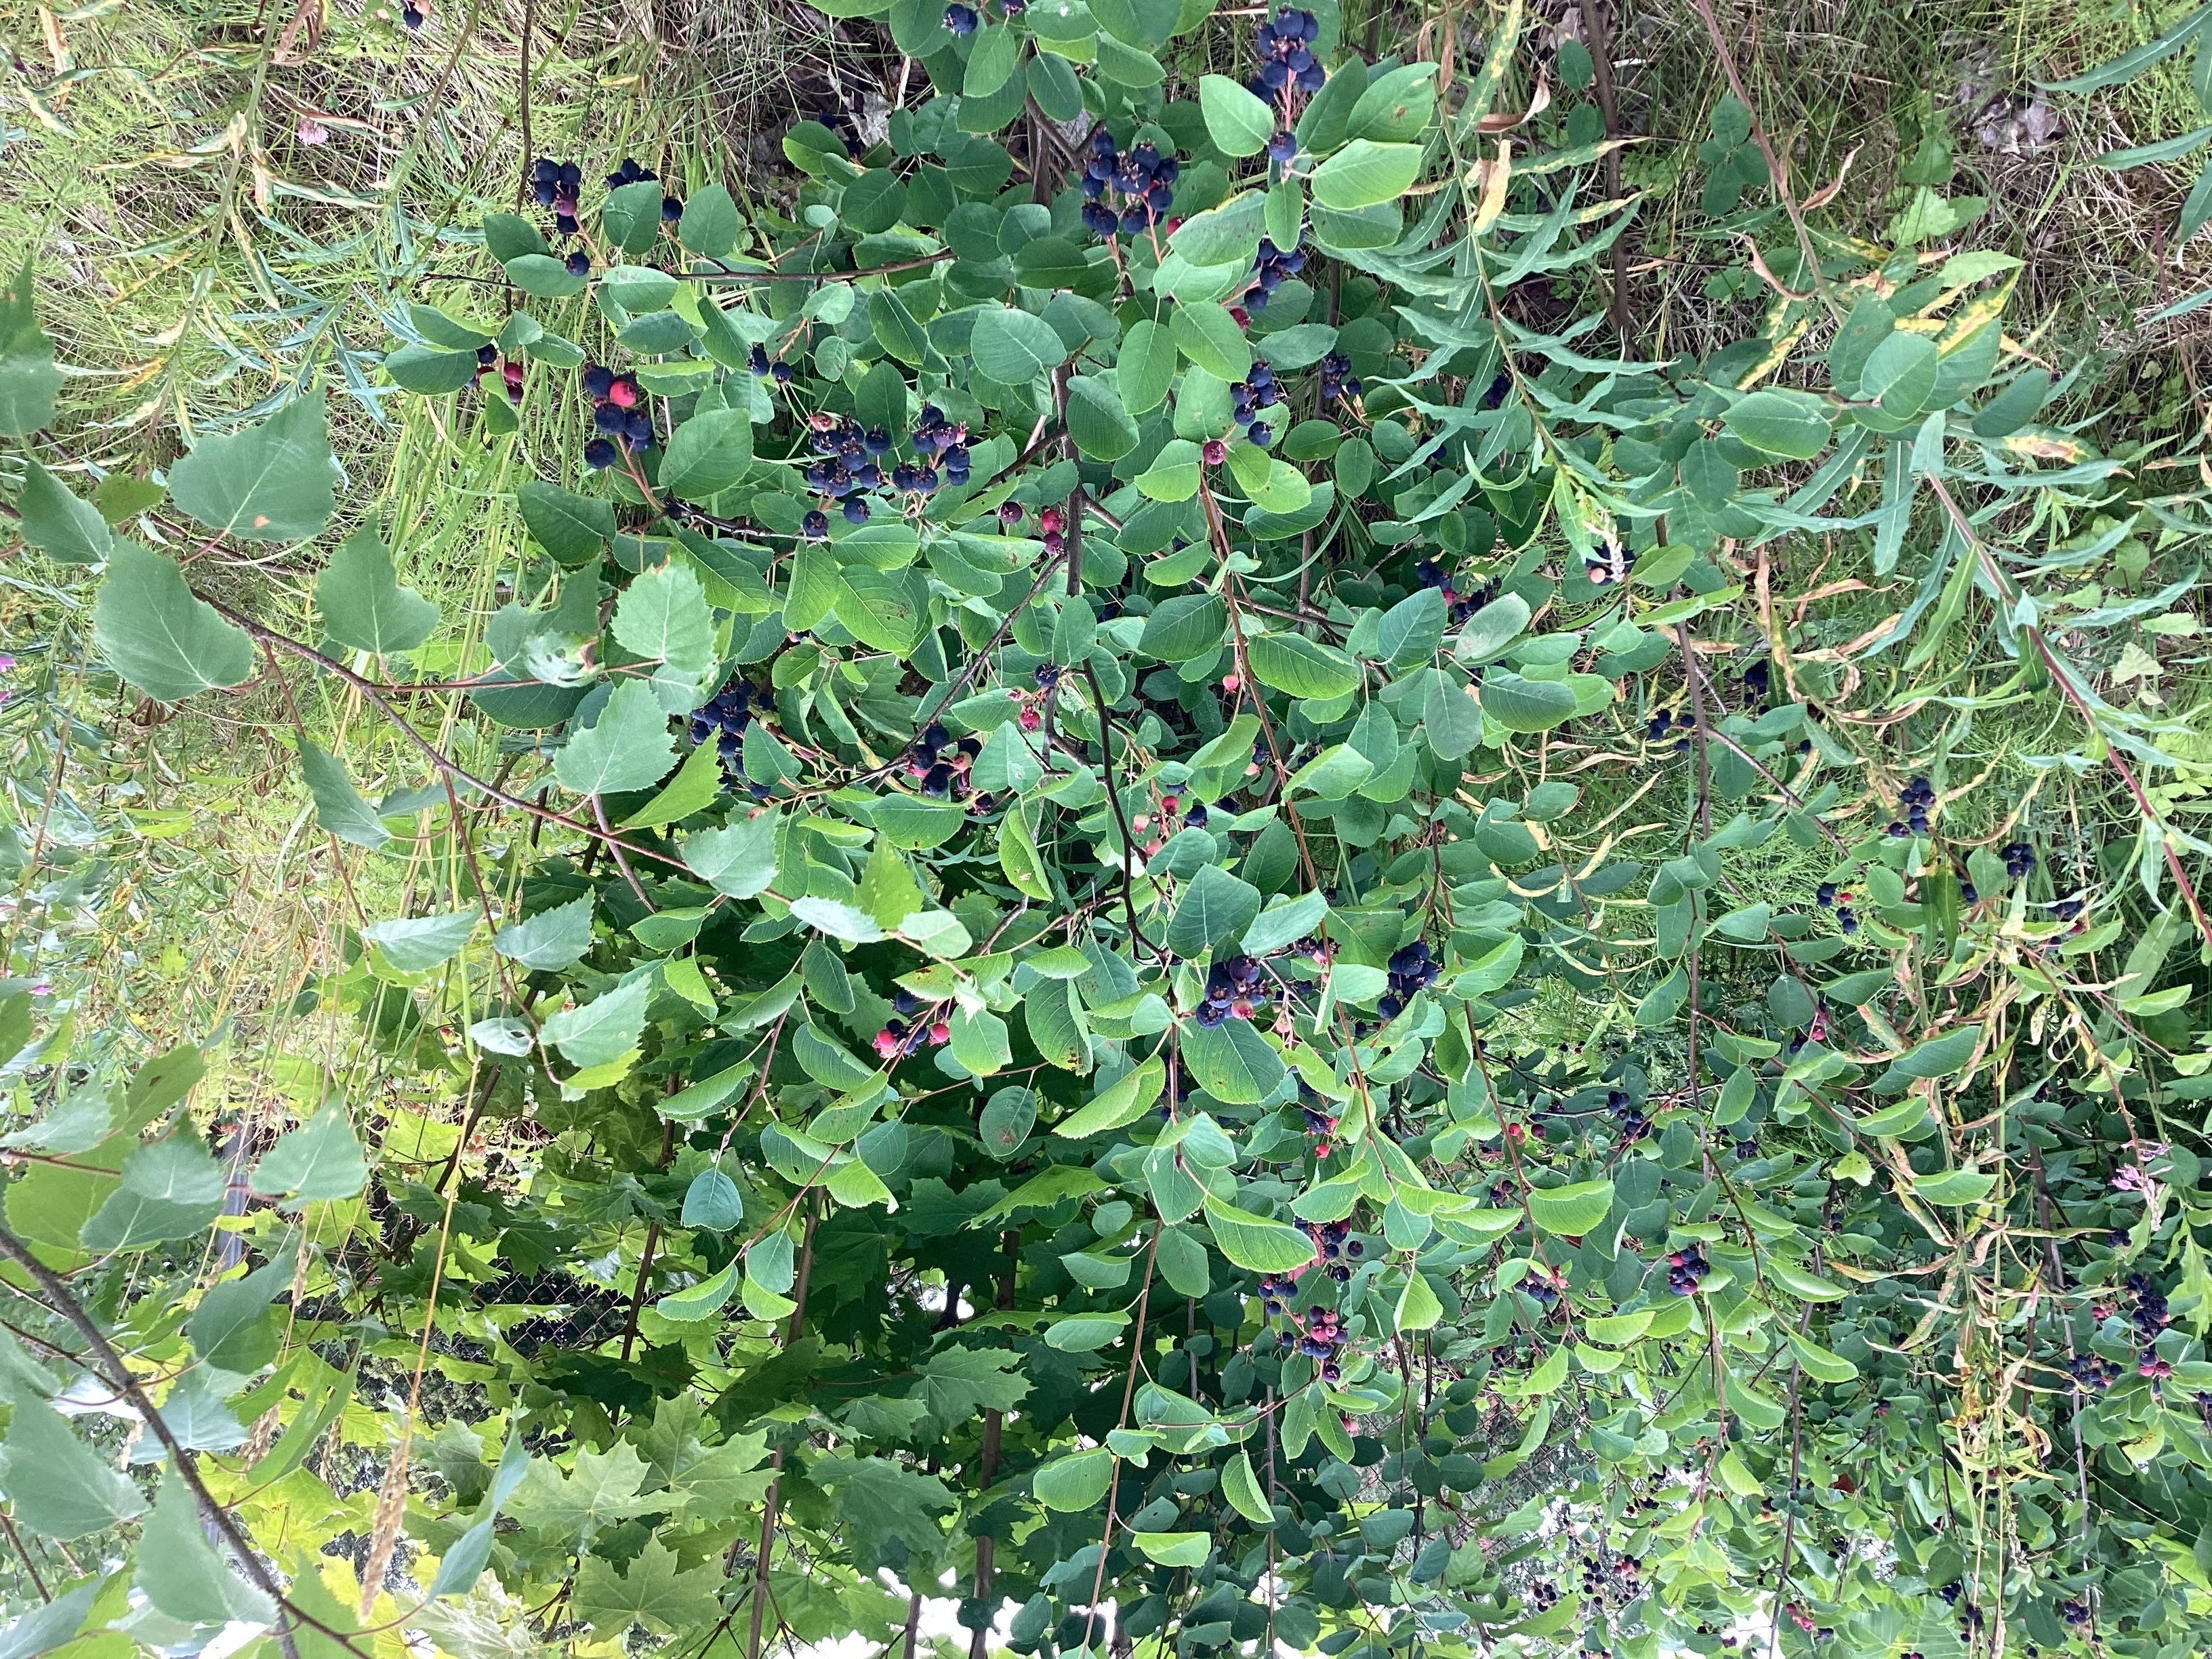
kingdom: Plantae
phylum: Tracheophyta
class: Magnoliopsida
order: Rosales
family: Rosaceae
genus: Amelanchier
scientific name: Amelanchier humilis
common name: blåhegg
